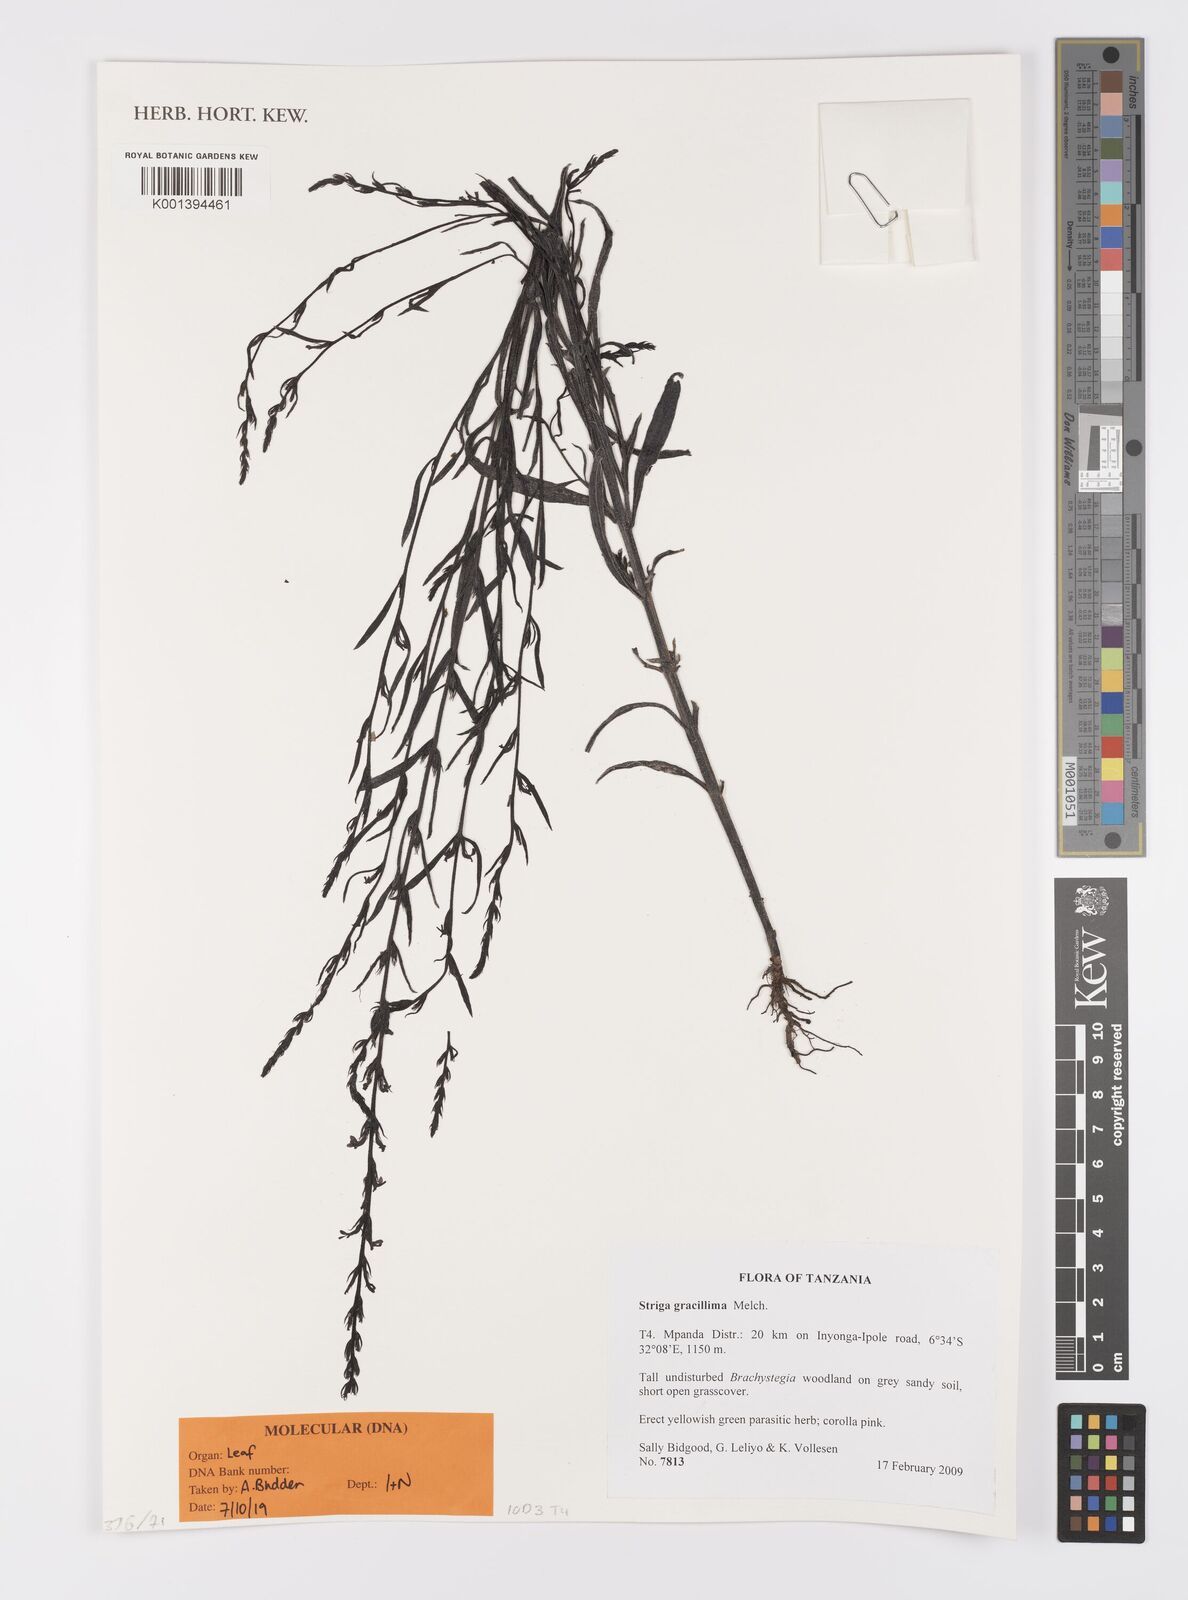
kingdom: Plantae
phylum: Tracheophyta
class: Magnoliopsida
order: Lamiales
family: Orobanchaceae
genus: Striga
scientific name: Striga gracillima
